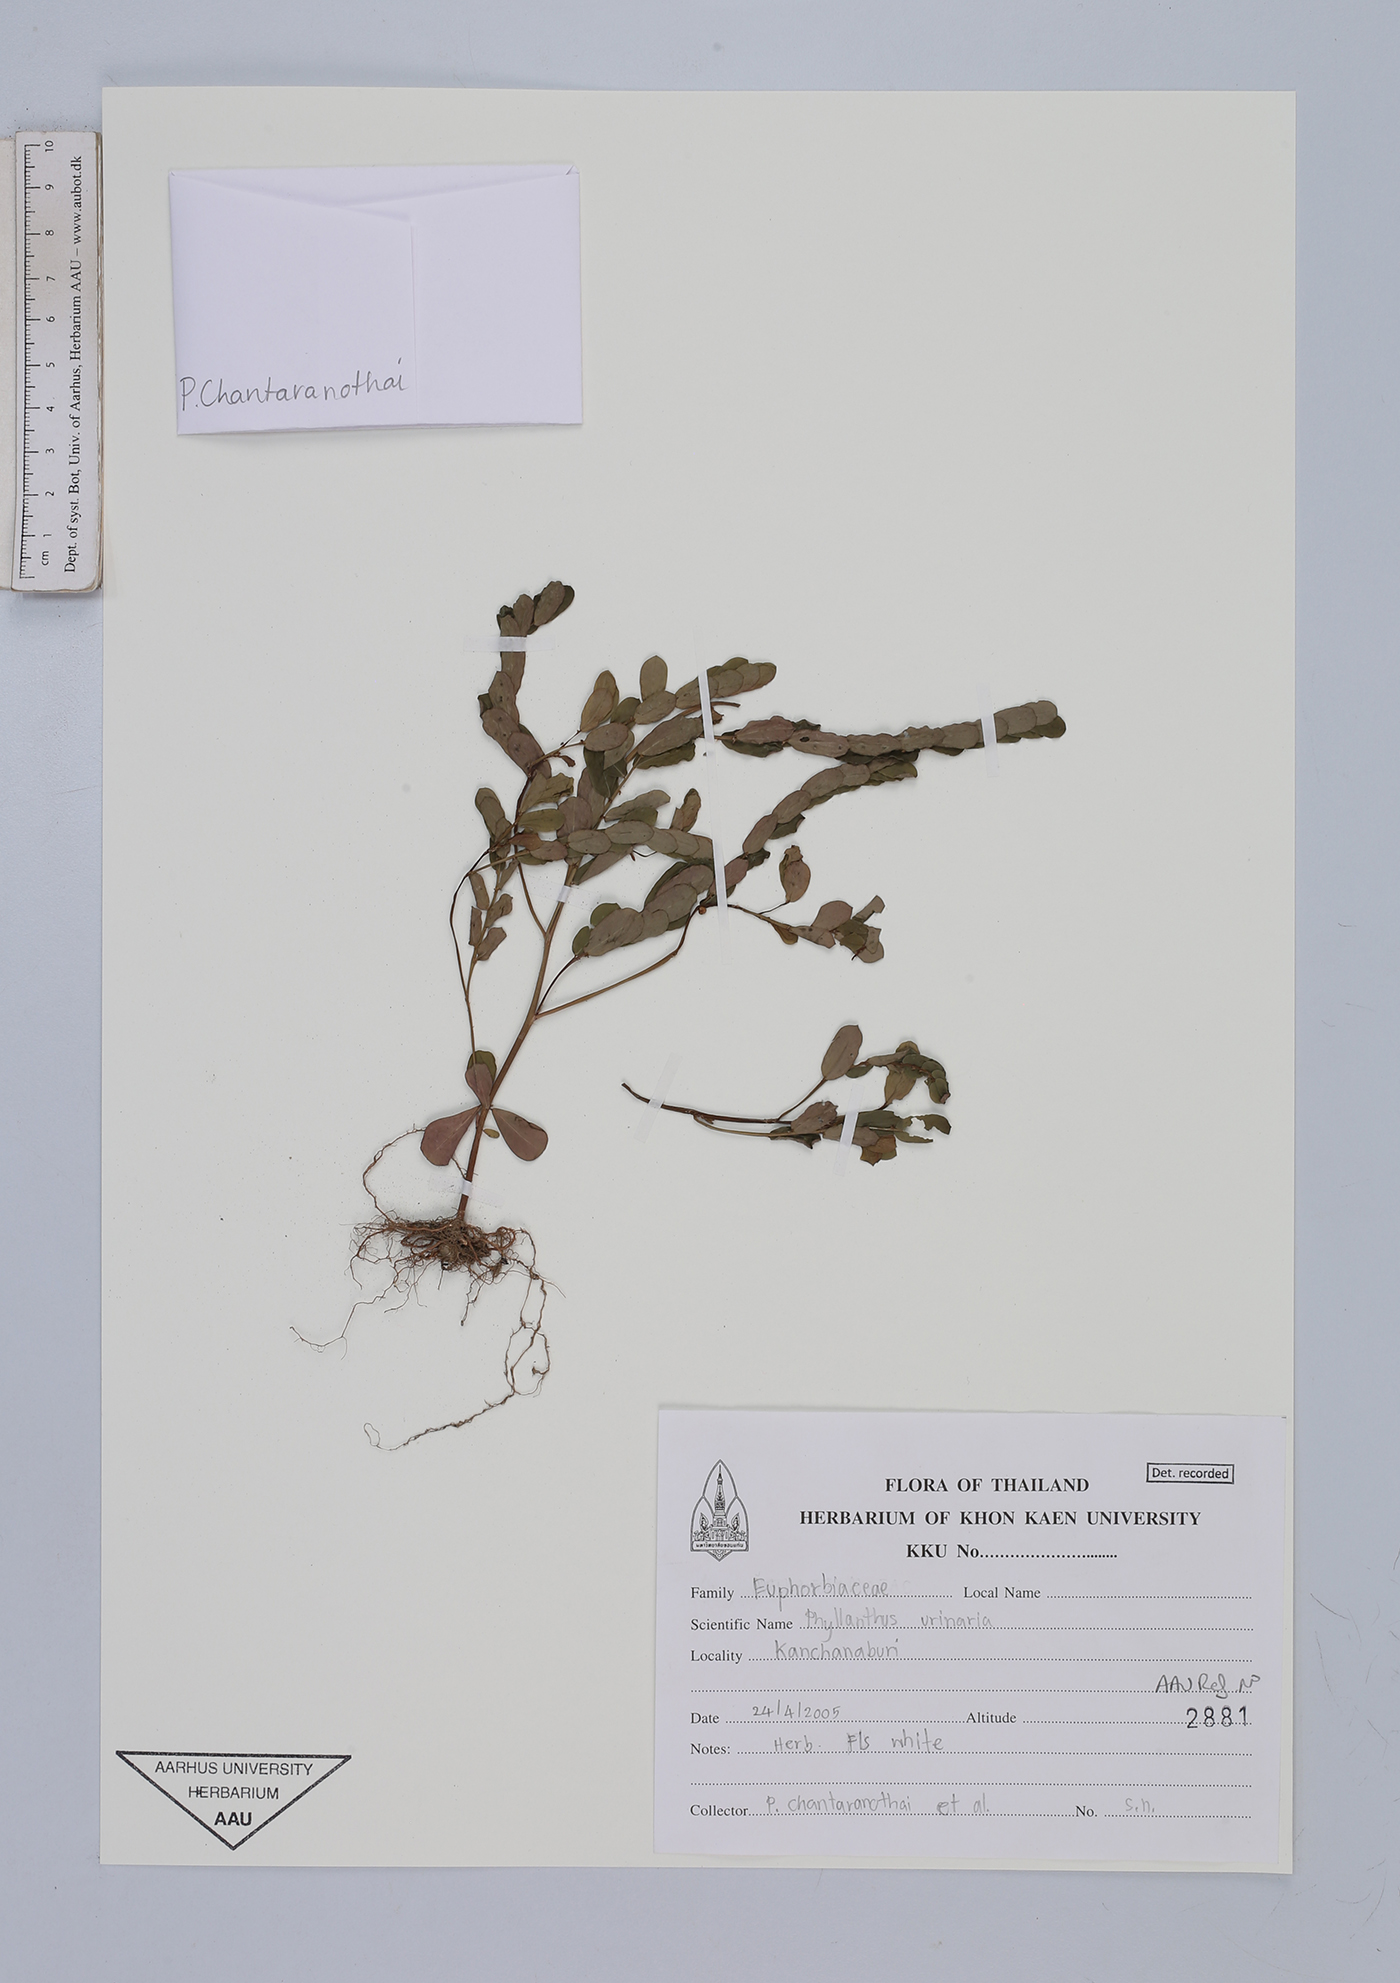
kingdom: Plantae
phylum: Tracheophyta
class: Magnoliopsida
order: Malpighiales
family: Phyllanthaceae
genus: Phyllanthus
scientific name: Phyllanthus urinaria
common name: Chamber bitter
